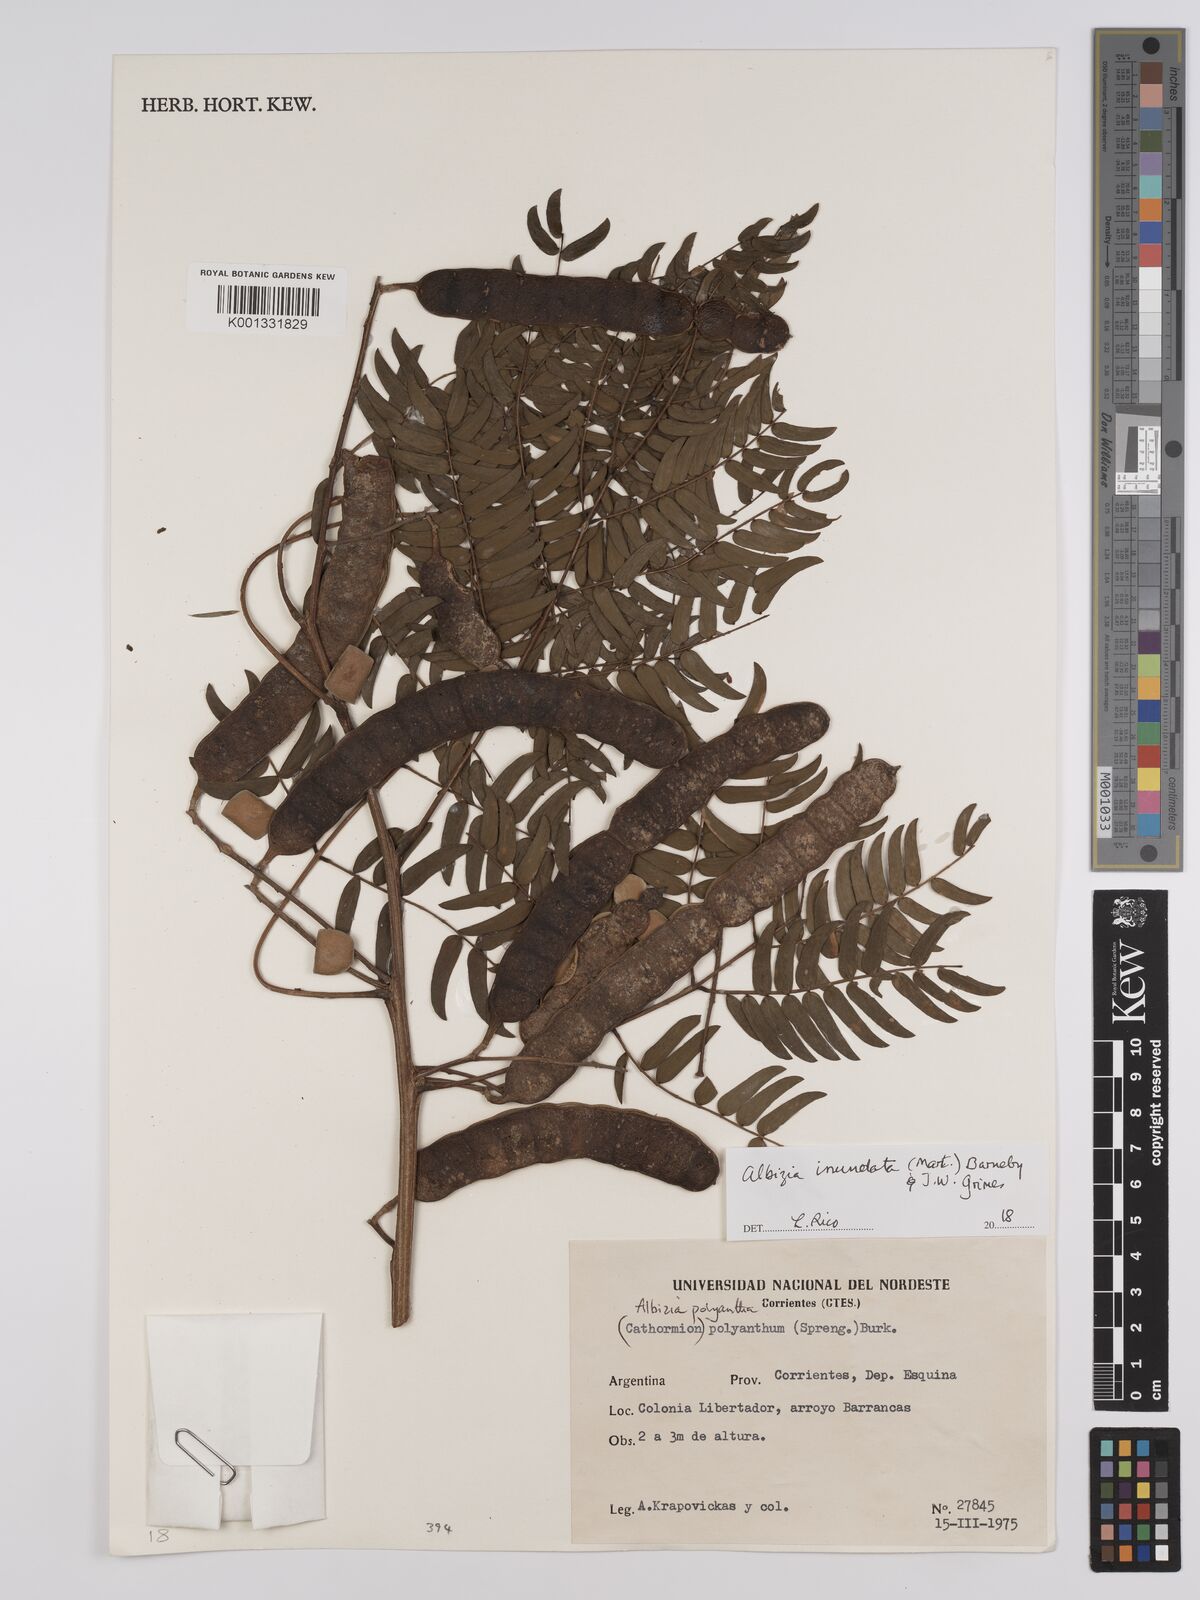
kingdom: Plantae
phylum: Tracheophyta
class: Magnoliopsida
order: Fabales
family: Fabaceae
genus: Albizia
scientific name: Albizia inundata
